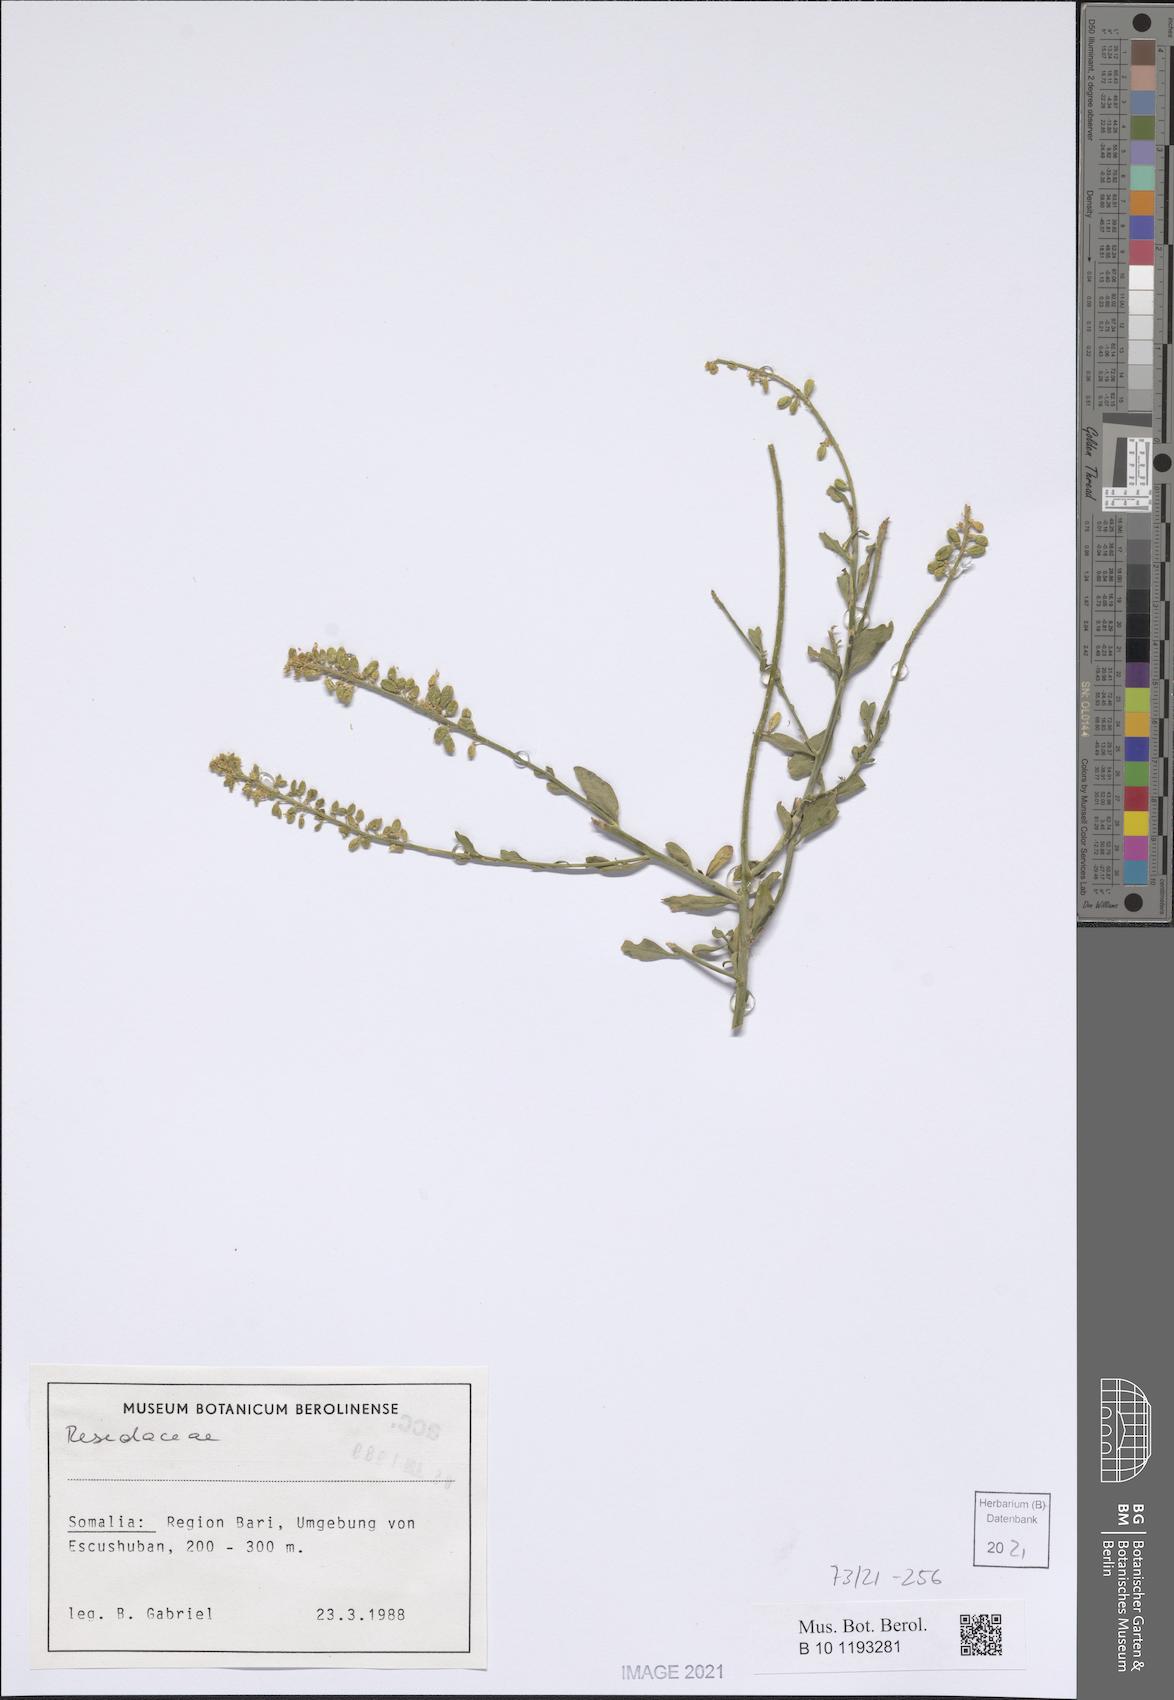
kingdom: Plantae
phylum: Tracheophyta
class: Magnoliopsida
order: Brassicales
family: Resedaceae
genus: Reseda
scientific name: Reseda amblycarpa
